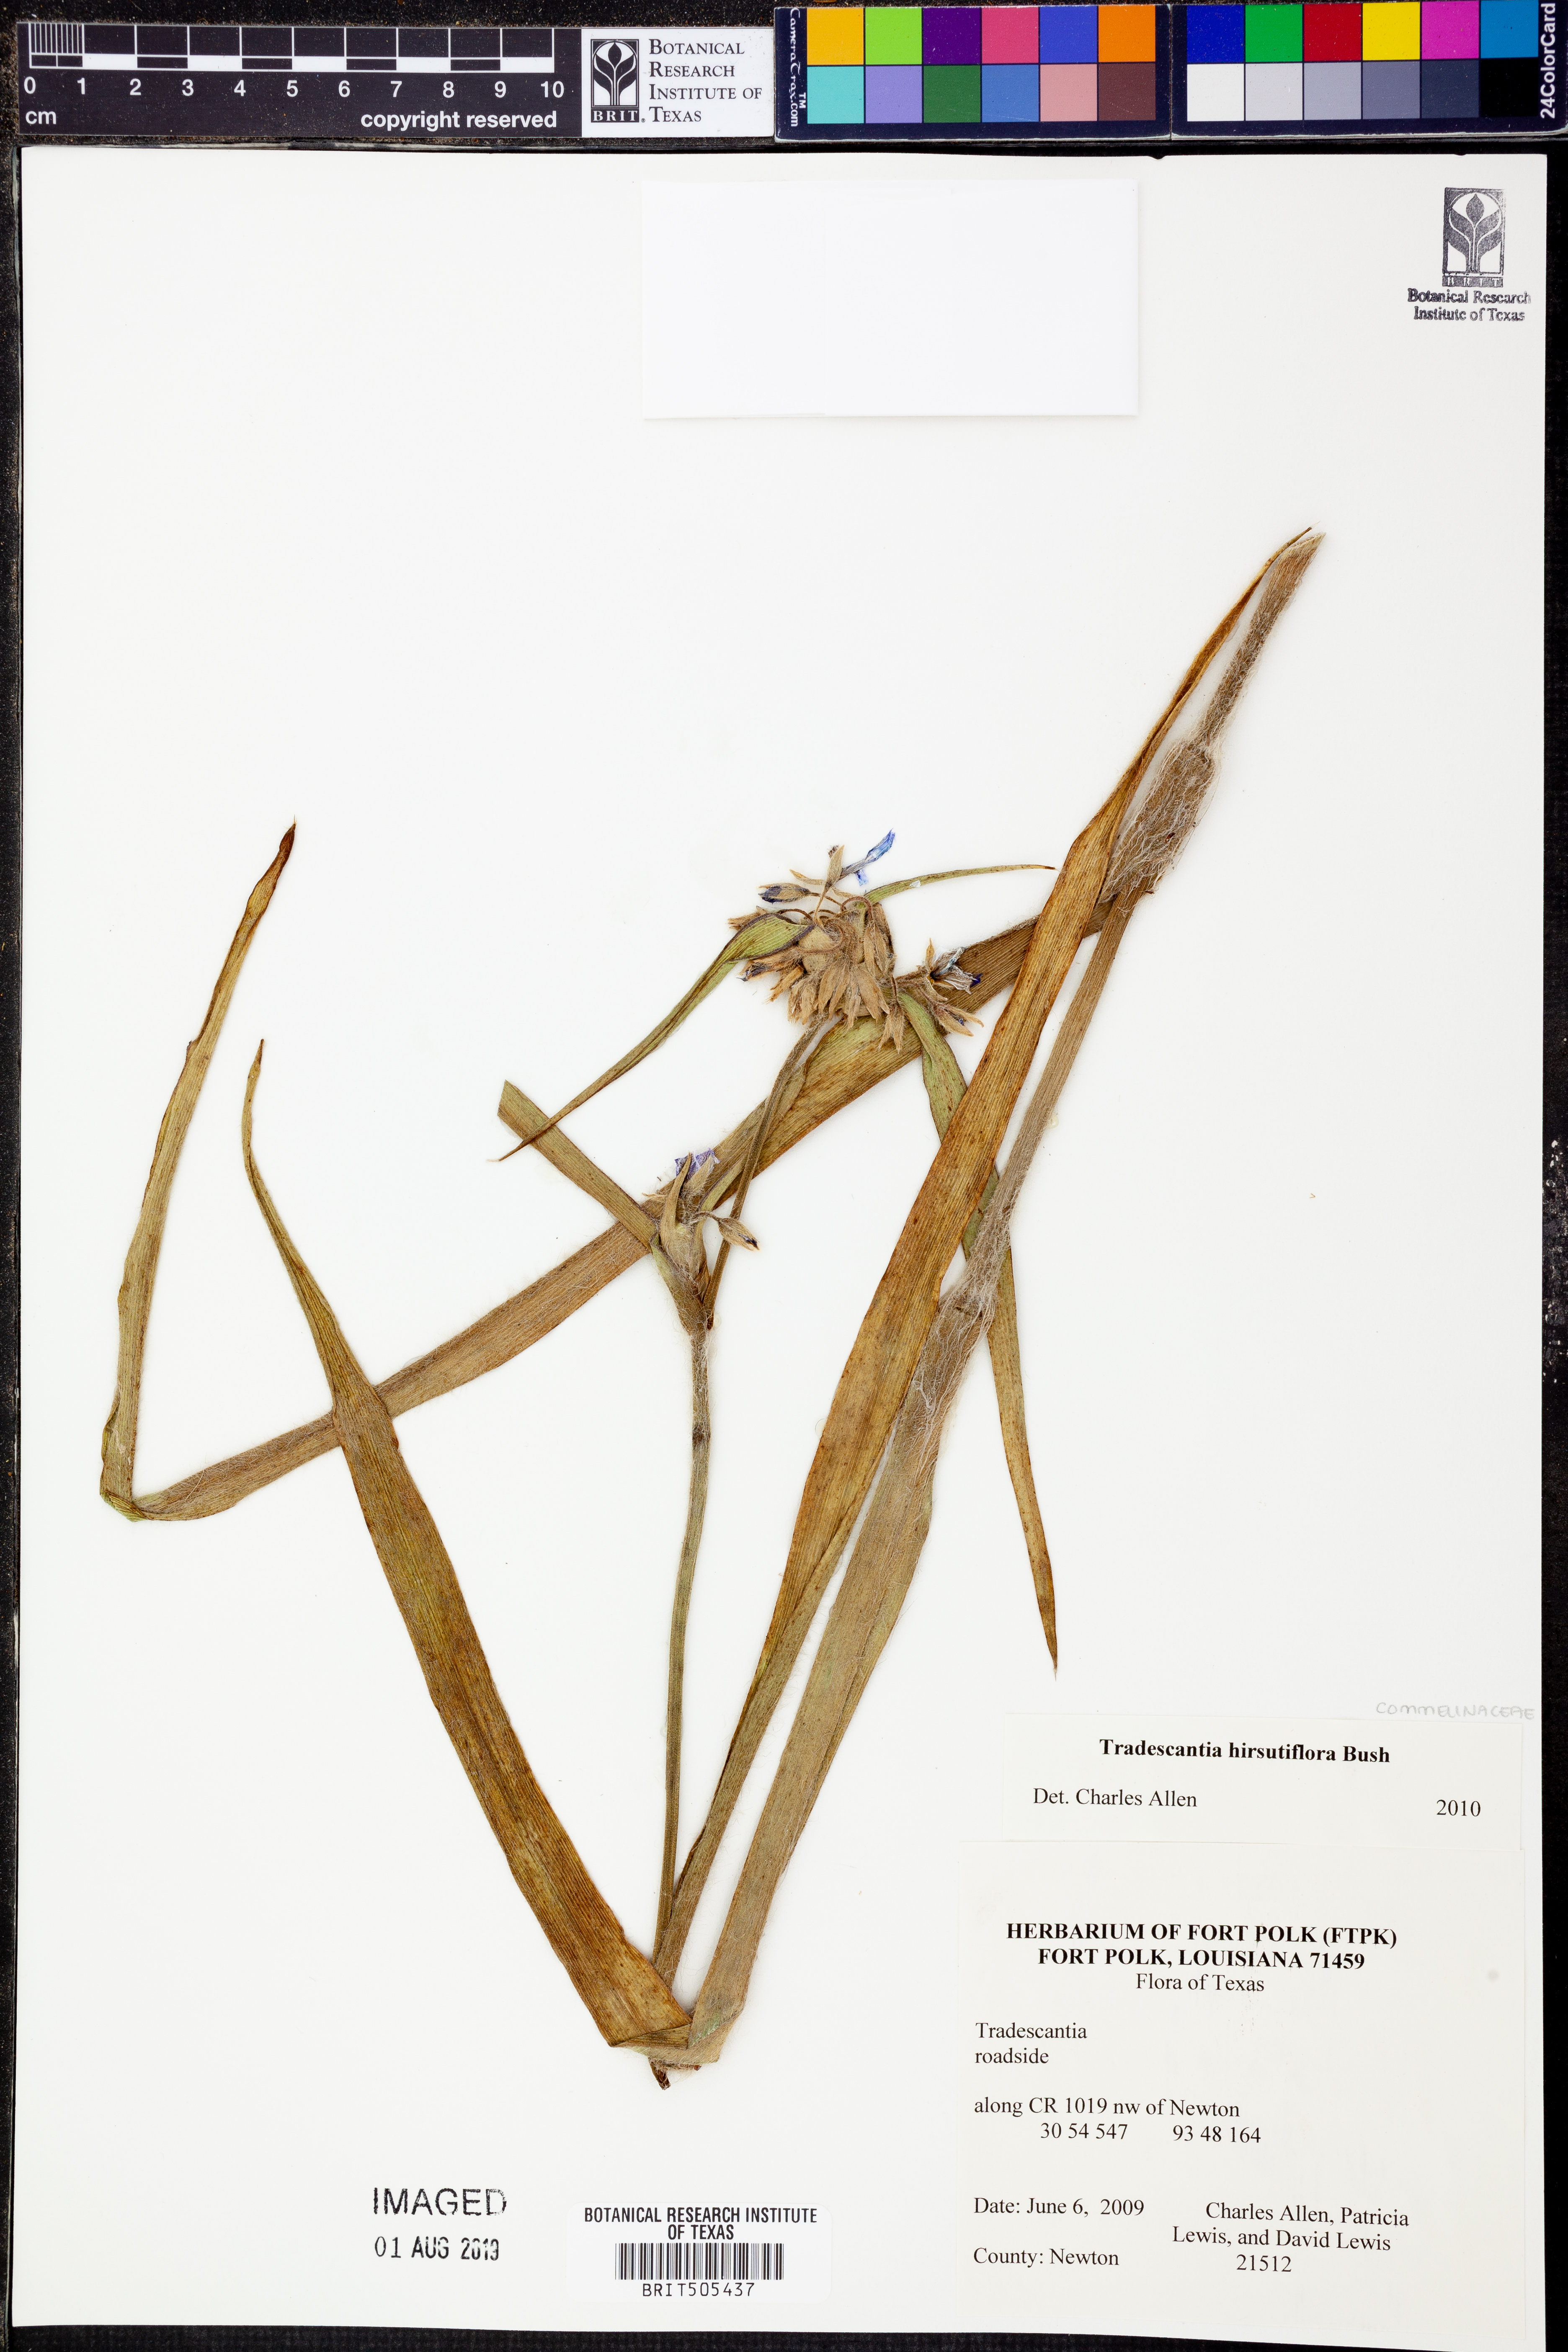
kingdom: Plantae
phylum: Tracheophyta
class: Liliopsida
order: Commelinales
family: Commelinaceae
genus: Tradescantia
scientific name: Tradescantia hirsutiflora
